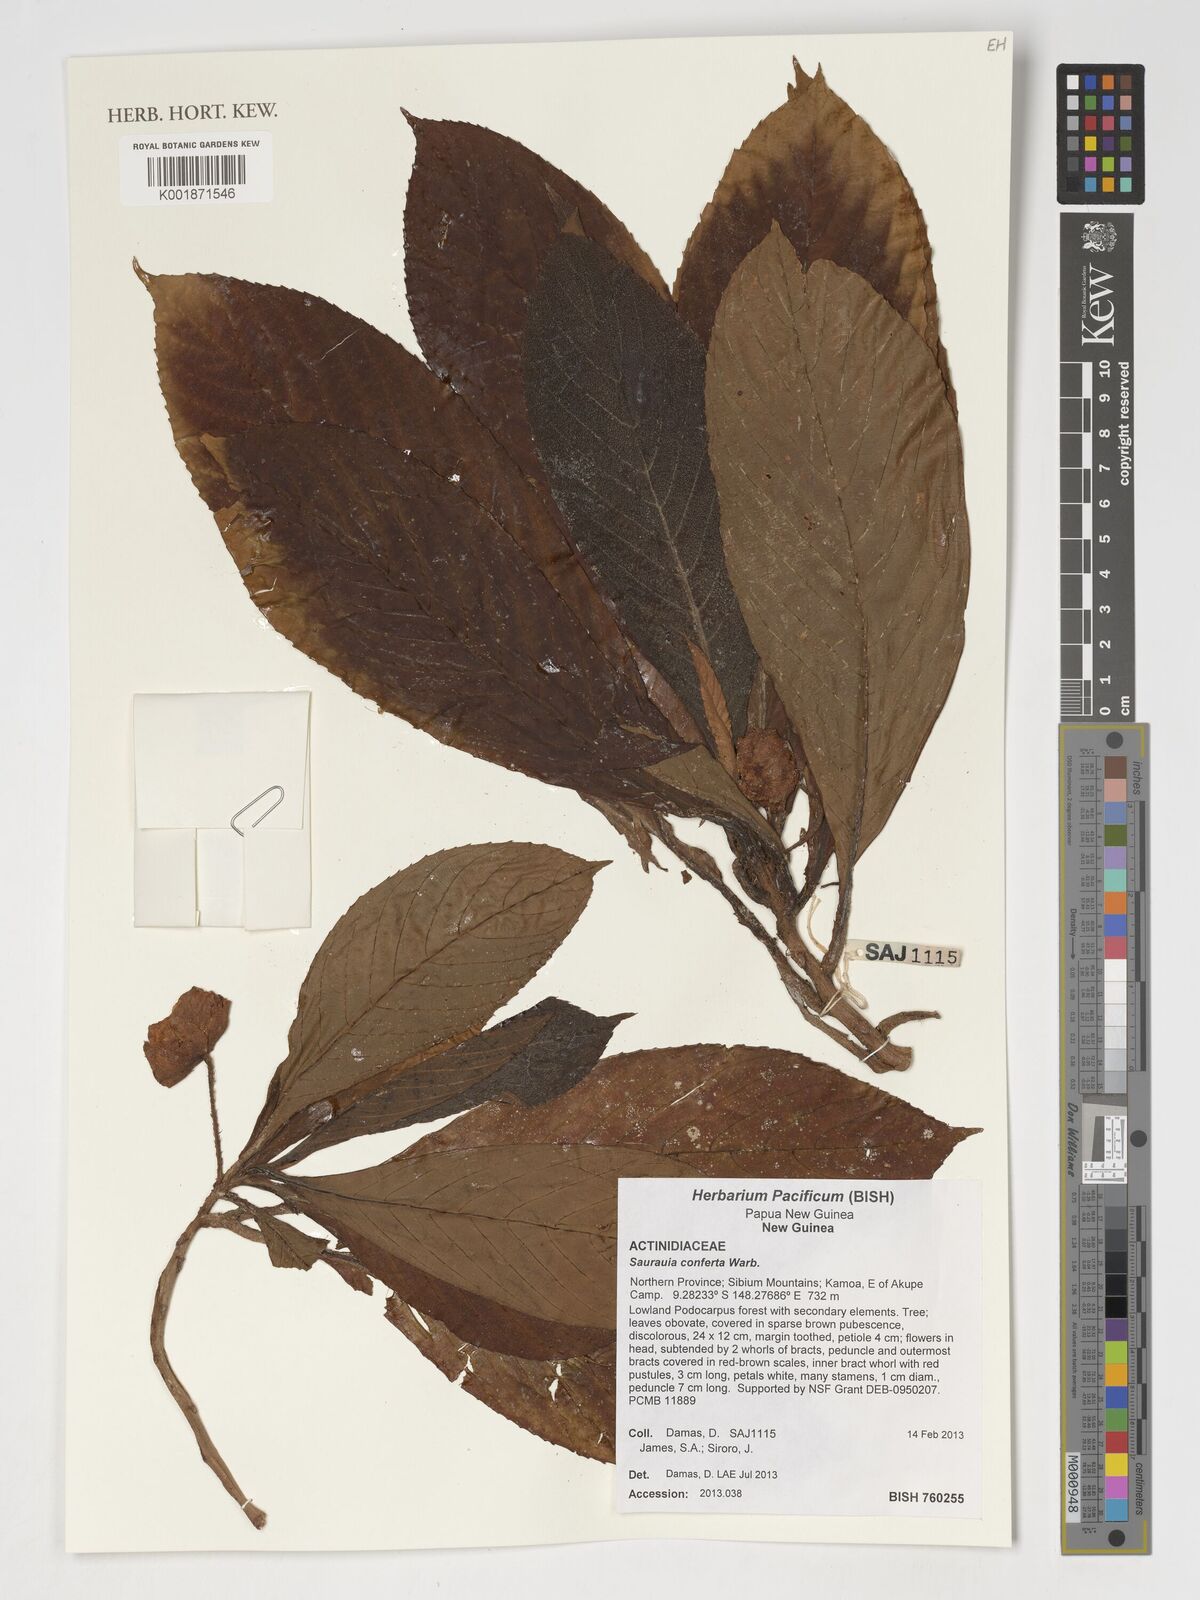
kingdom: Plantae
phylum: Tracheophyta
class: Magnoliopsida
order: Ericales
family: Actinidiaceae
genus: Saurauia
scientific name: Saurauia conferta
